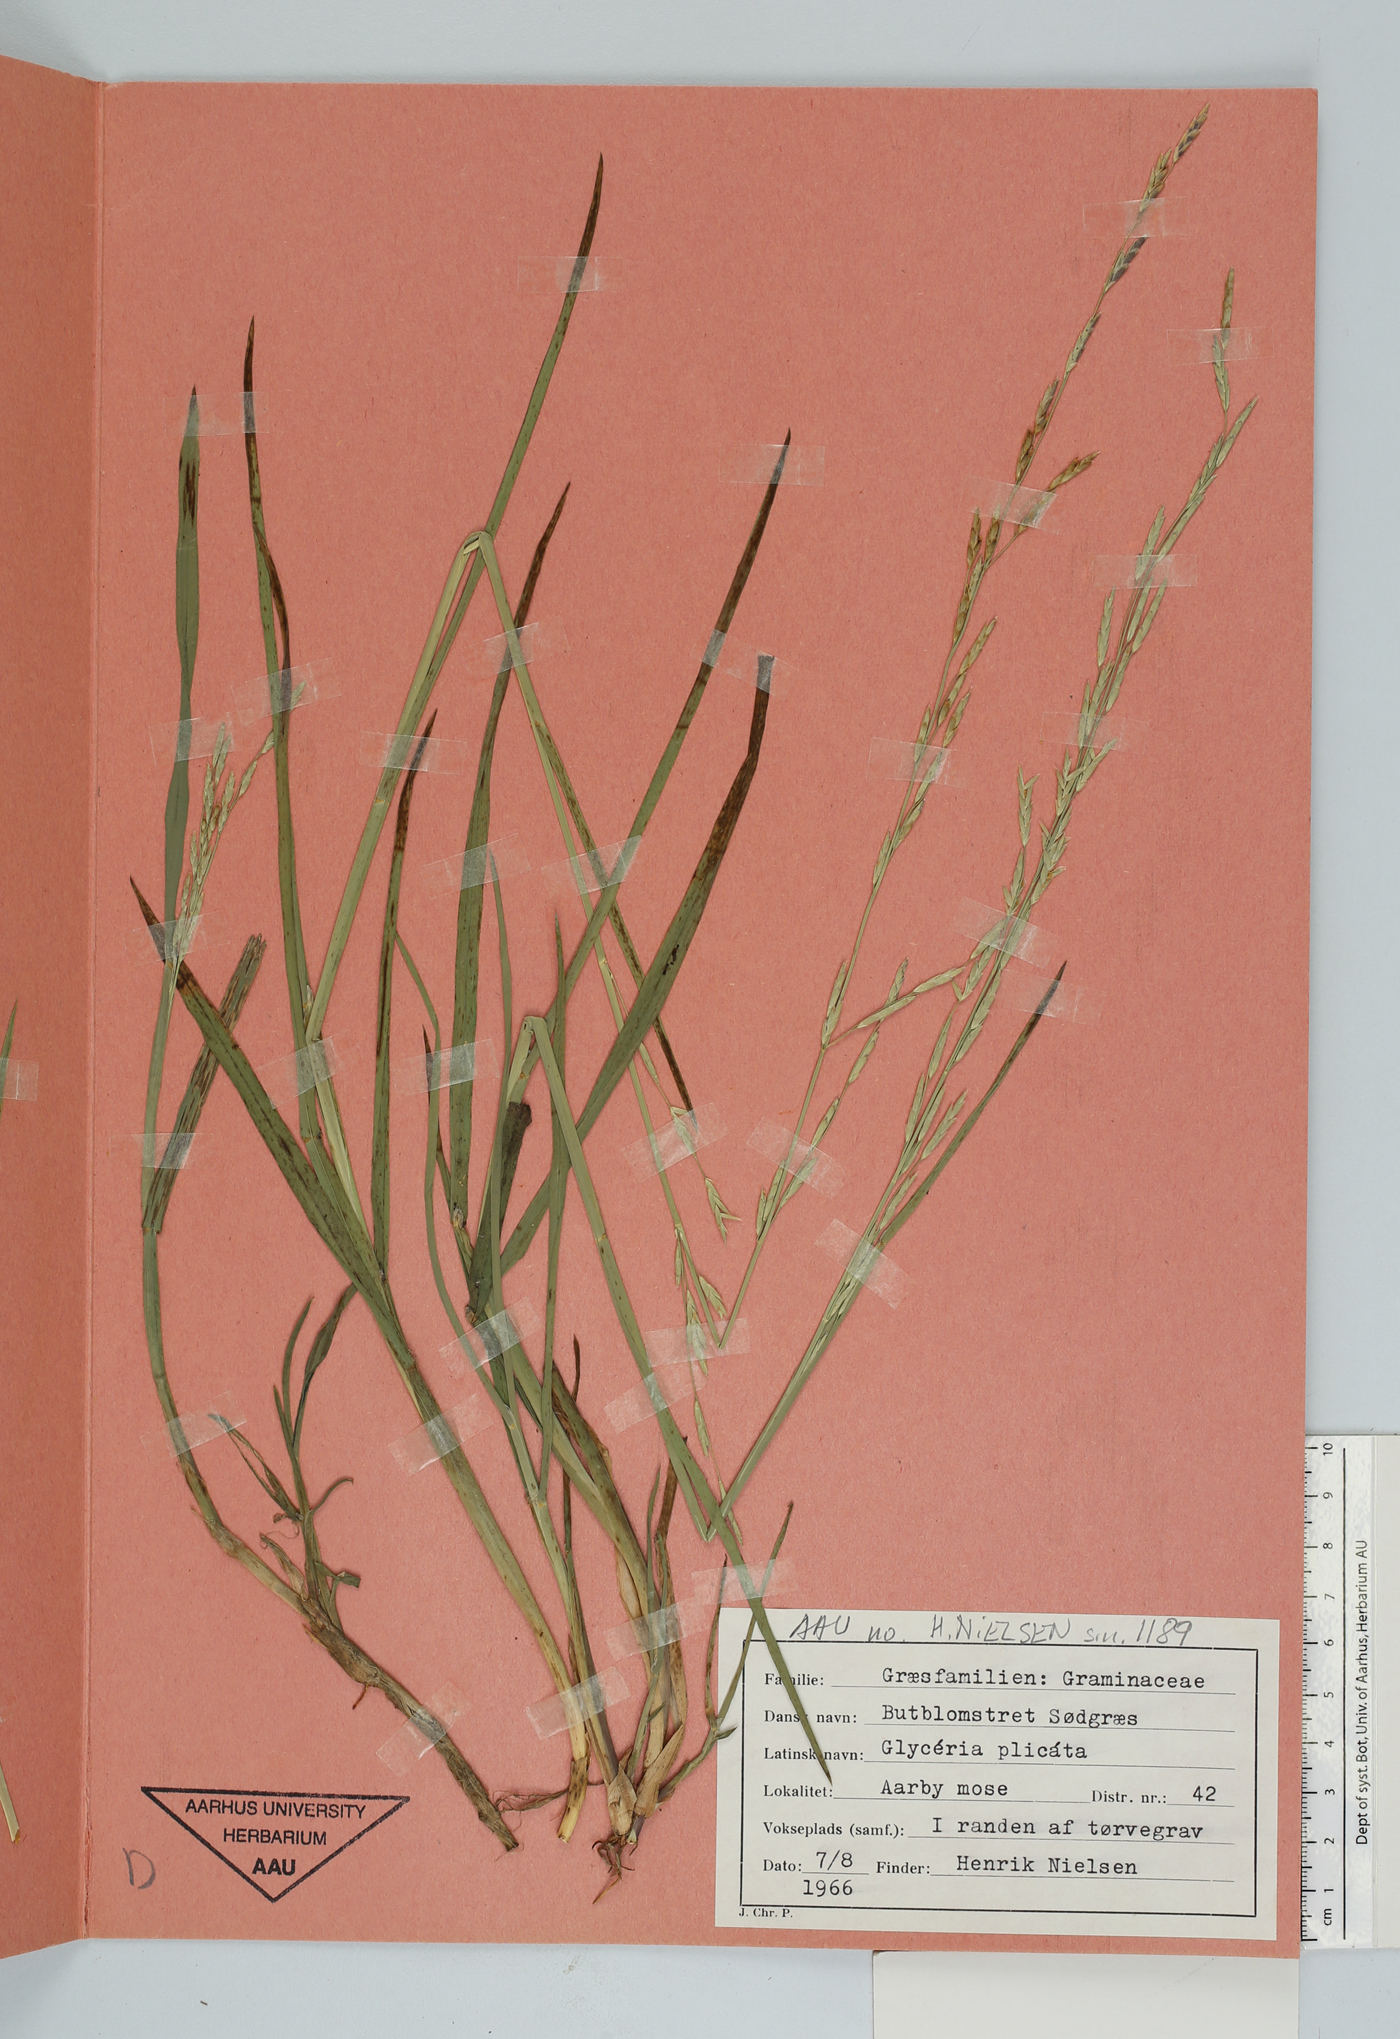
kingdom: Plantae
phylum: Tracheophyta
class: Liliopsida
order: Poales
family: Poaceae
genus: Glyceria
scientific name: Glyceria notata
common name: Plicate sweet-grass
